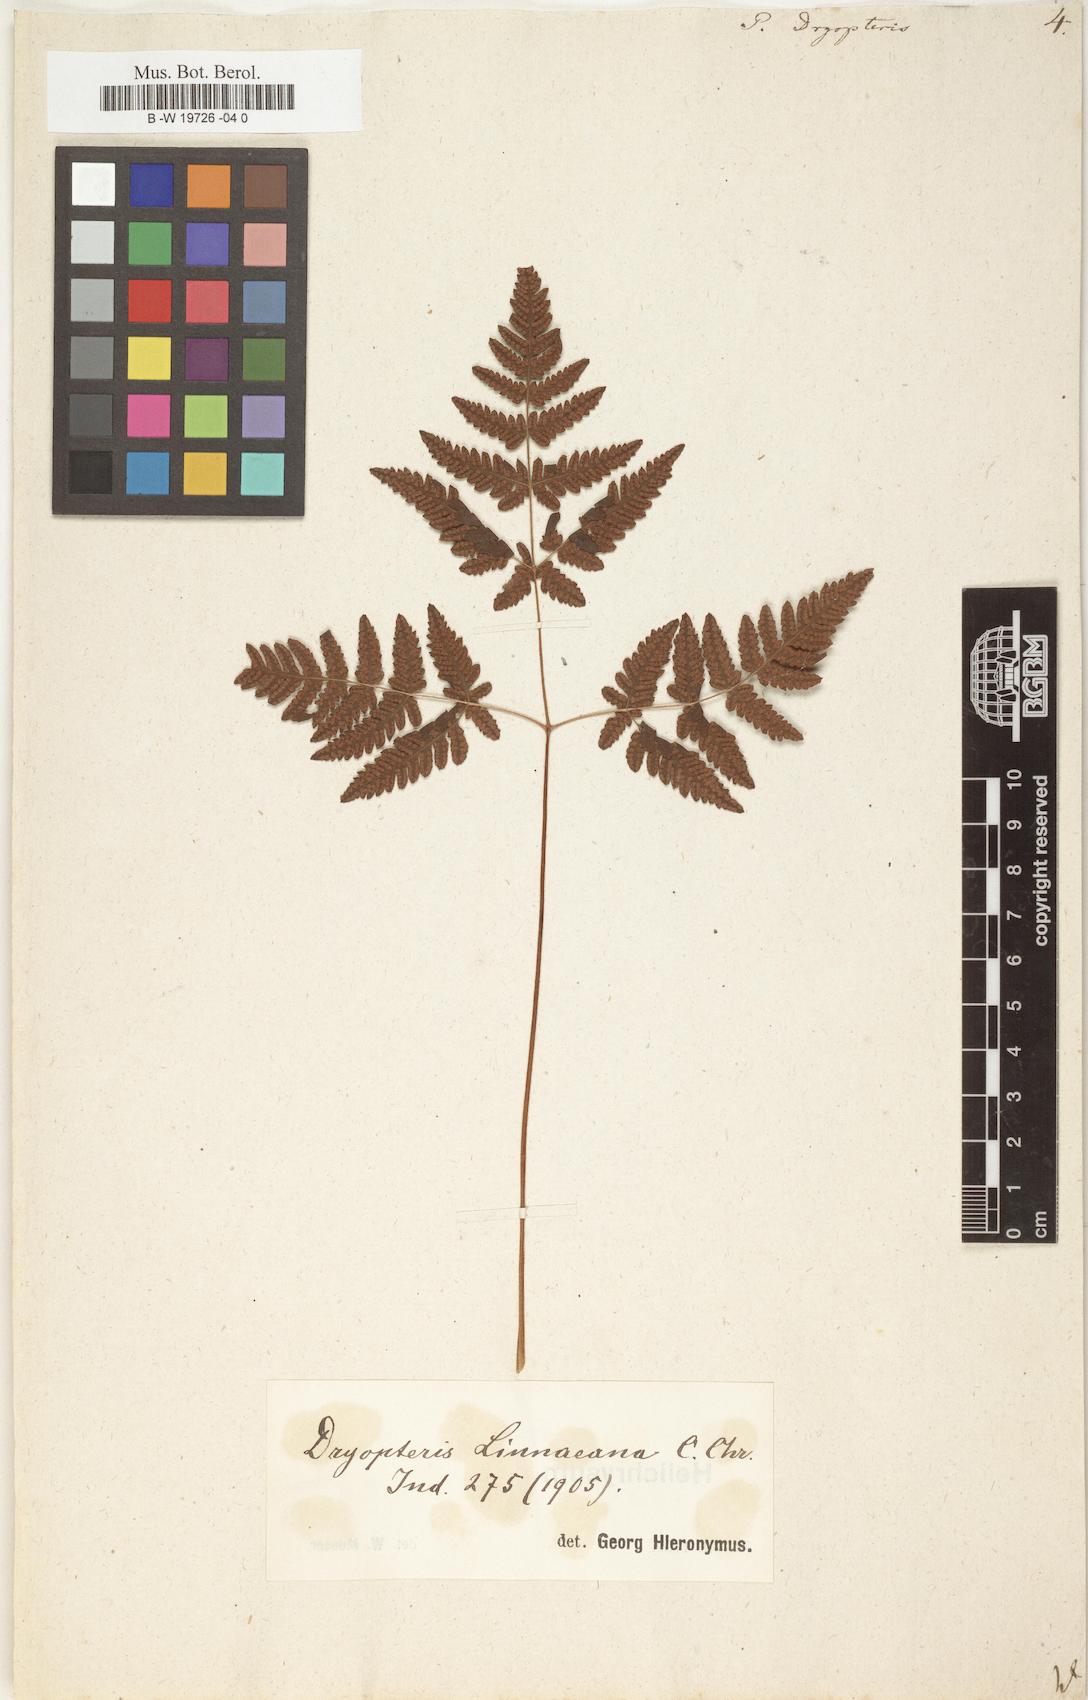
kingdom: Plantae
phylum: Tracheophyta
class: Polypodiopsida
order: Polypodiales
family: Cystopteridaceae
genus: Gymnocarpium
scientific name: Gymnocarpium dryopteris
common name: Oak fern
